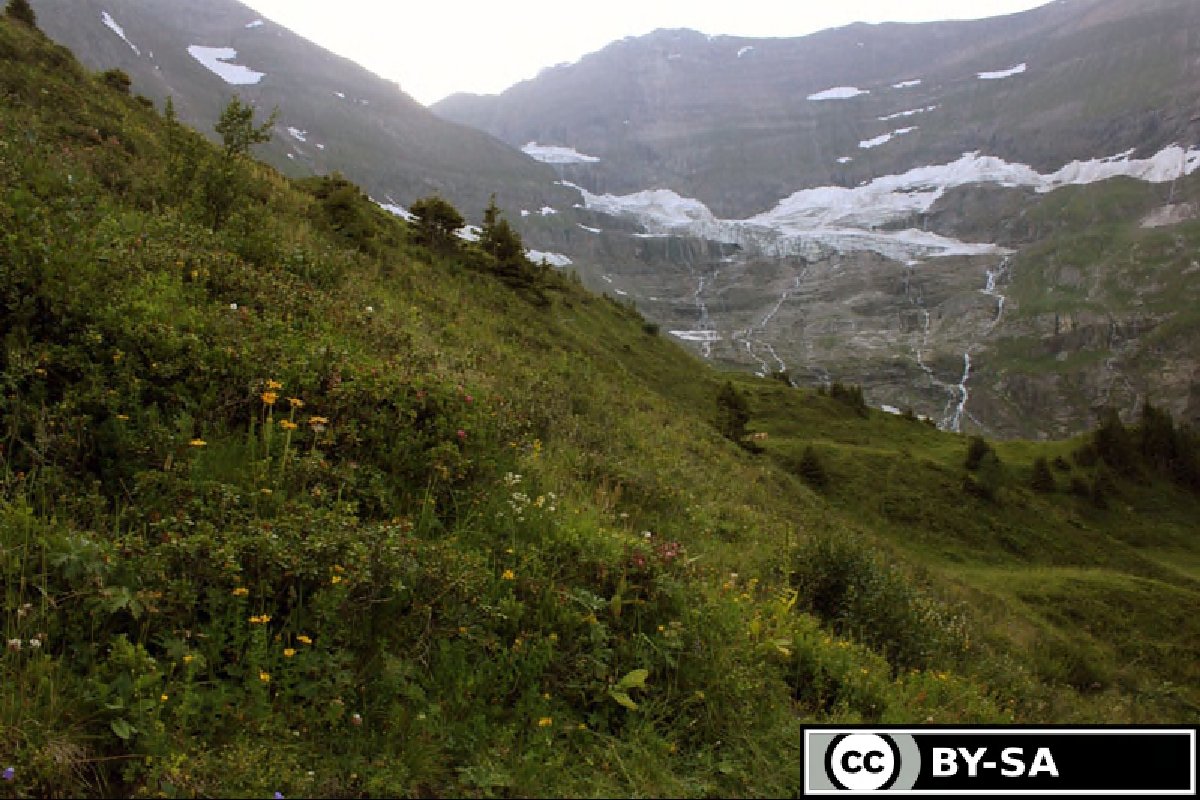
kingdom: Plantae
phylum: Tracheophyta
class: Polypodiopsida
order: Ophioglossales
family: Ophioglossaceae
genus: Botrychium
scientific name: Botrychium lanceolatum
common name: Lance-leaved moonwort
